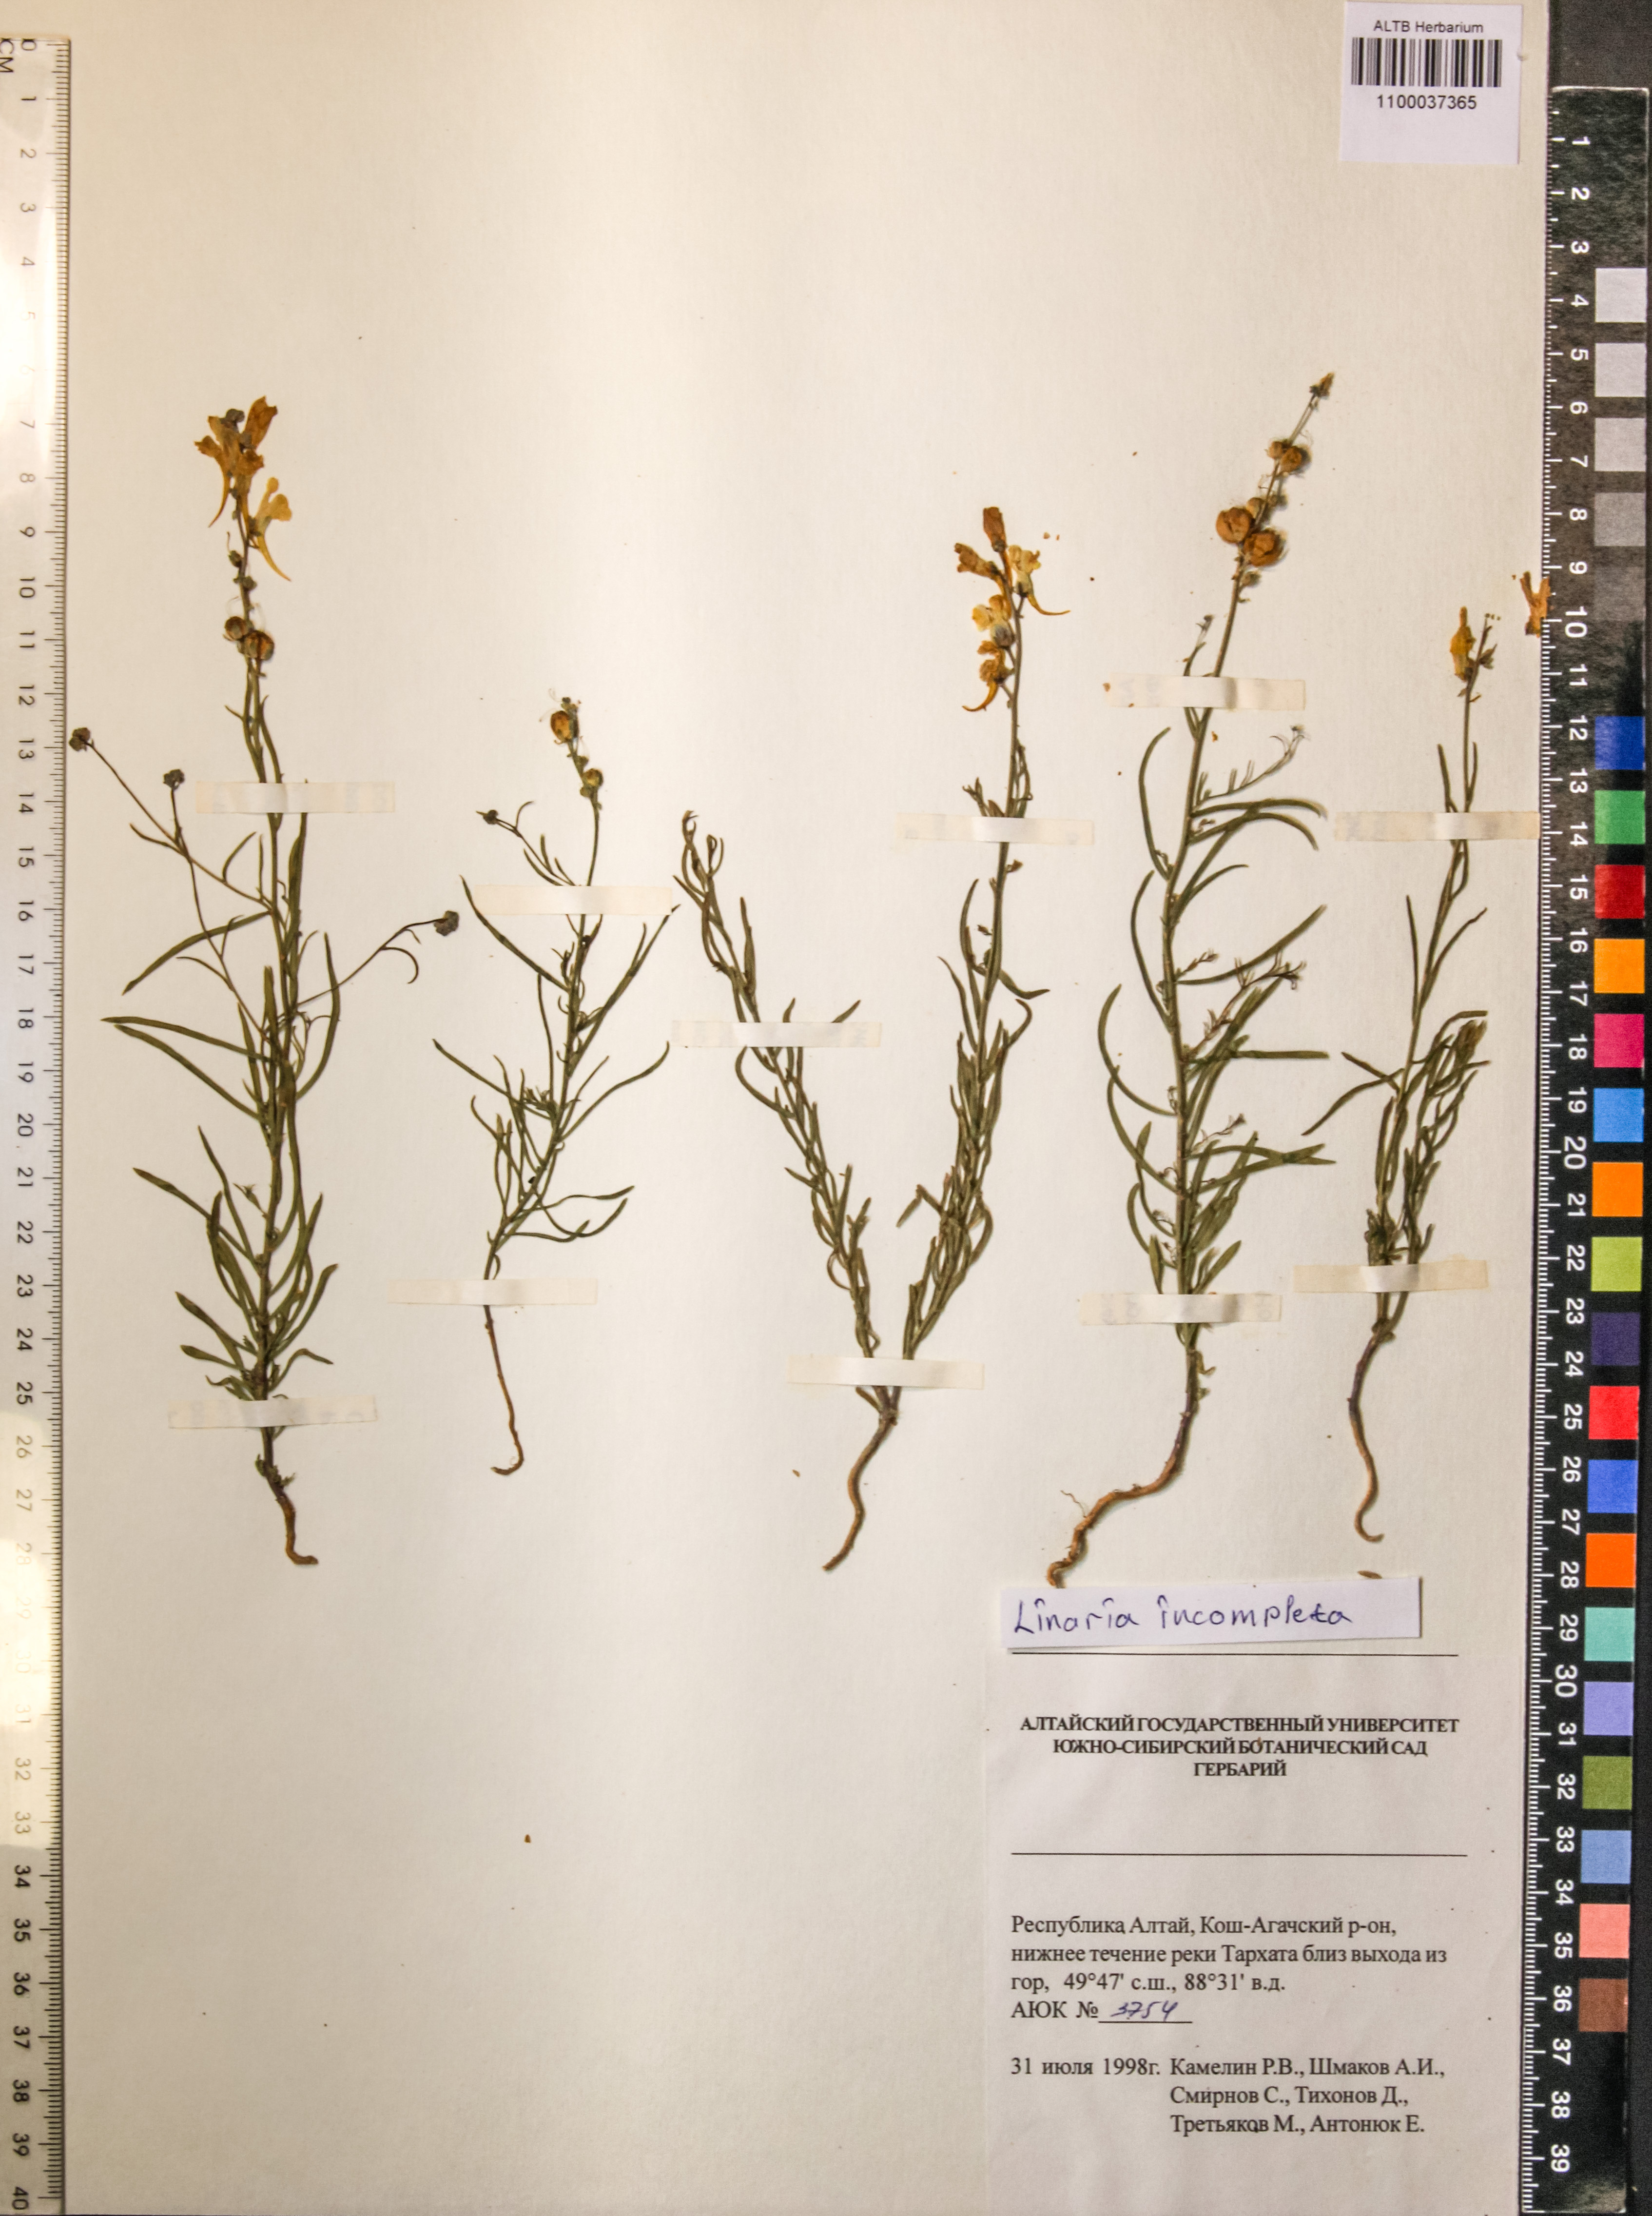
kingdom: Plantae
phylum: Tracheophyta
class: Magnoliopsida
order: Lamiales
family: Plantaginaceae
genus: Linaria
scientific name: Linaria incompleta
